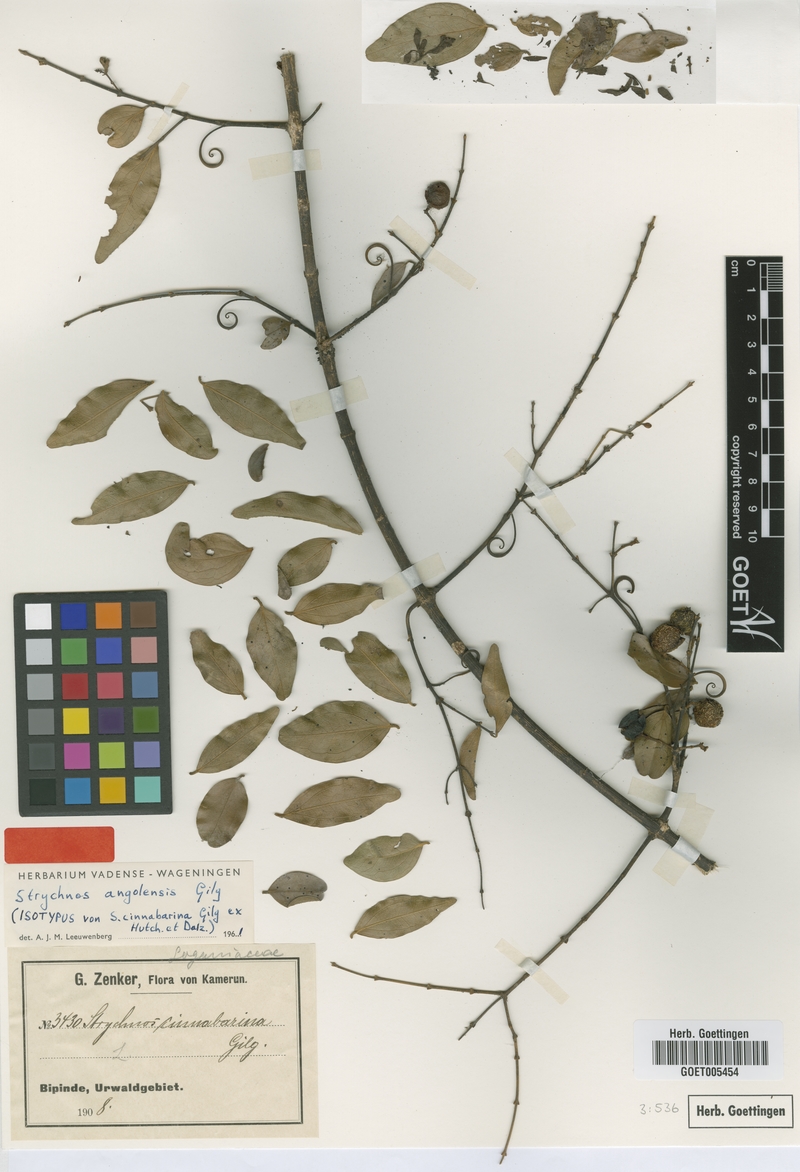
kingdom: Plantae
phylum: Tracheophyta
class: Magnoliopsida
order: Gentianales
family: Loganiaceae
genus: Strychnos
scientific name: Strychnos angolensis
